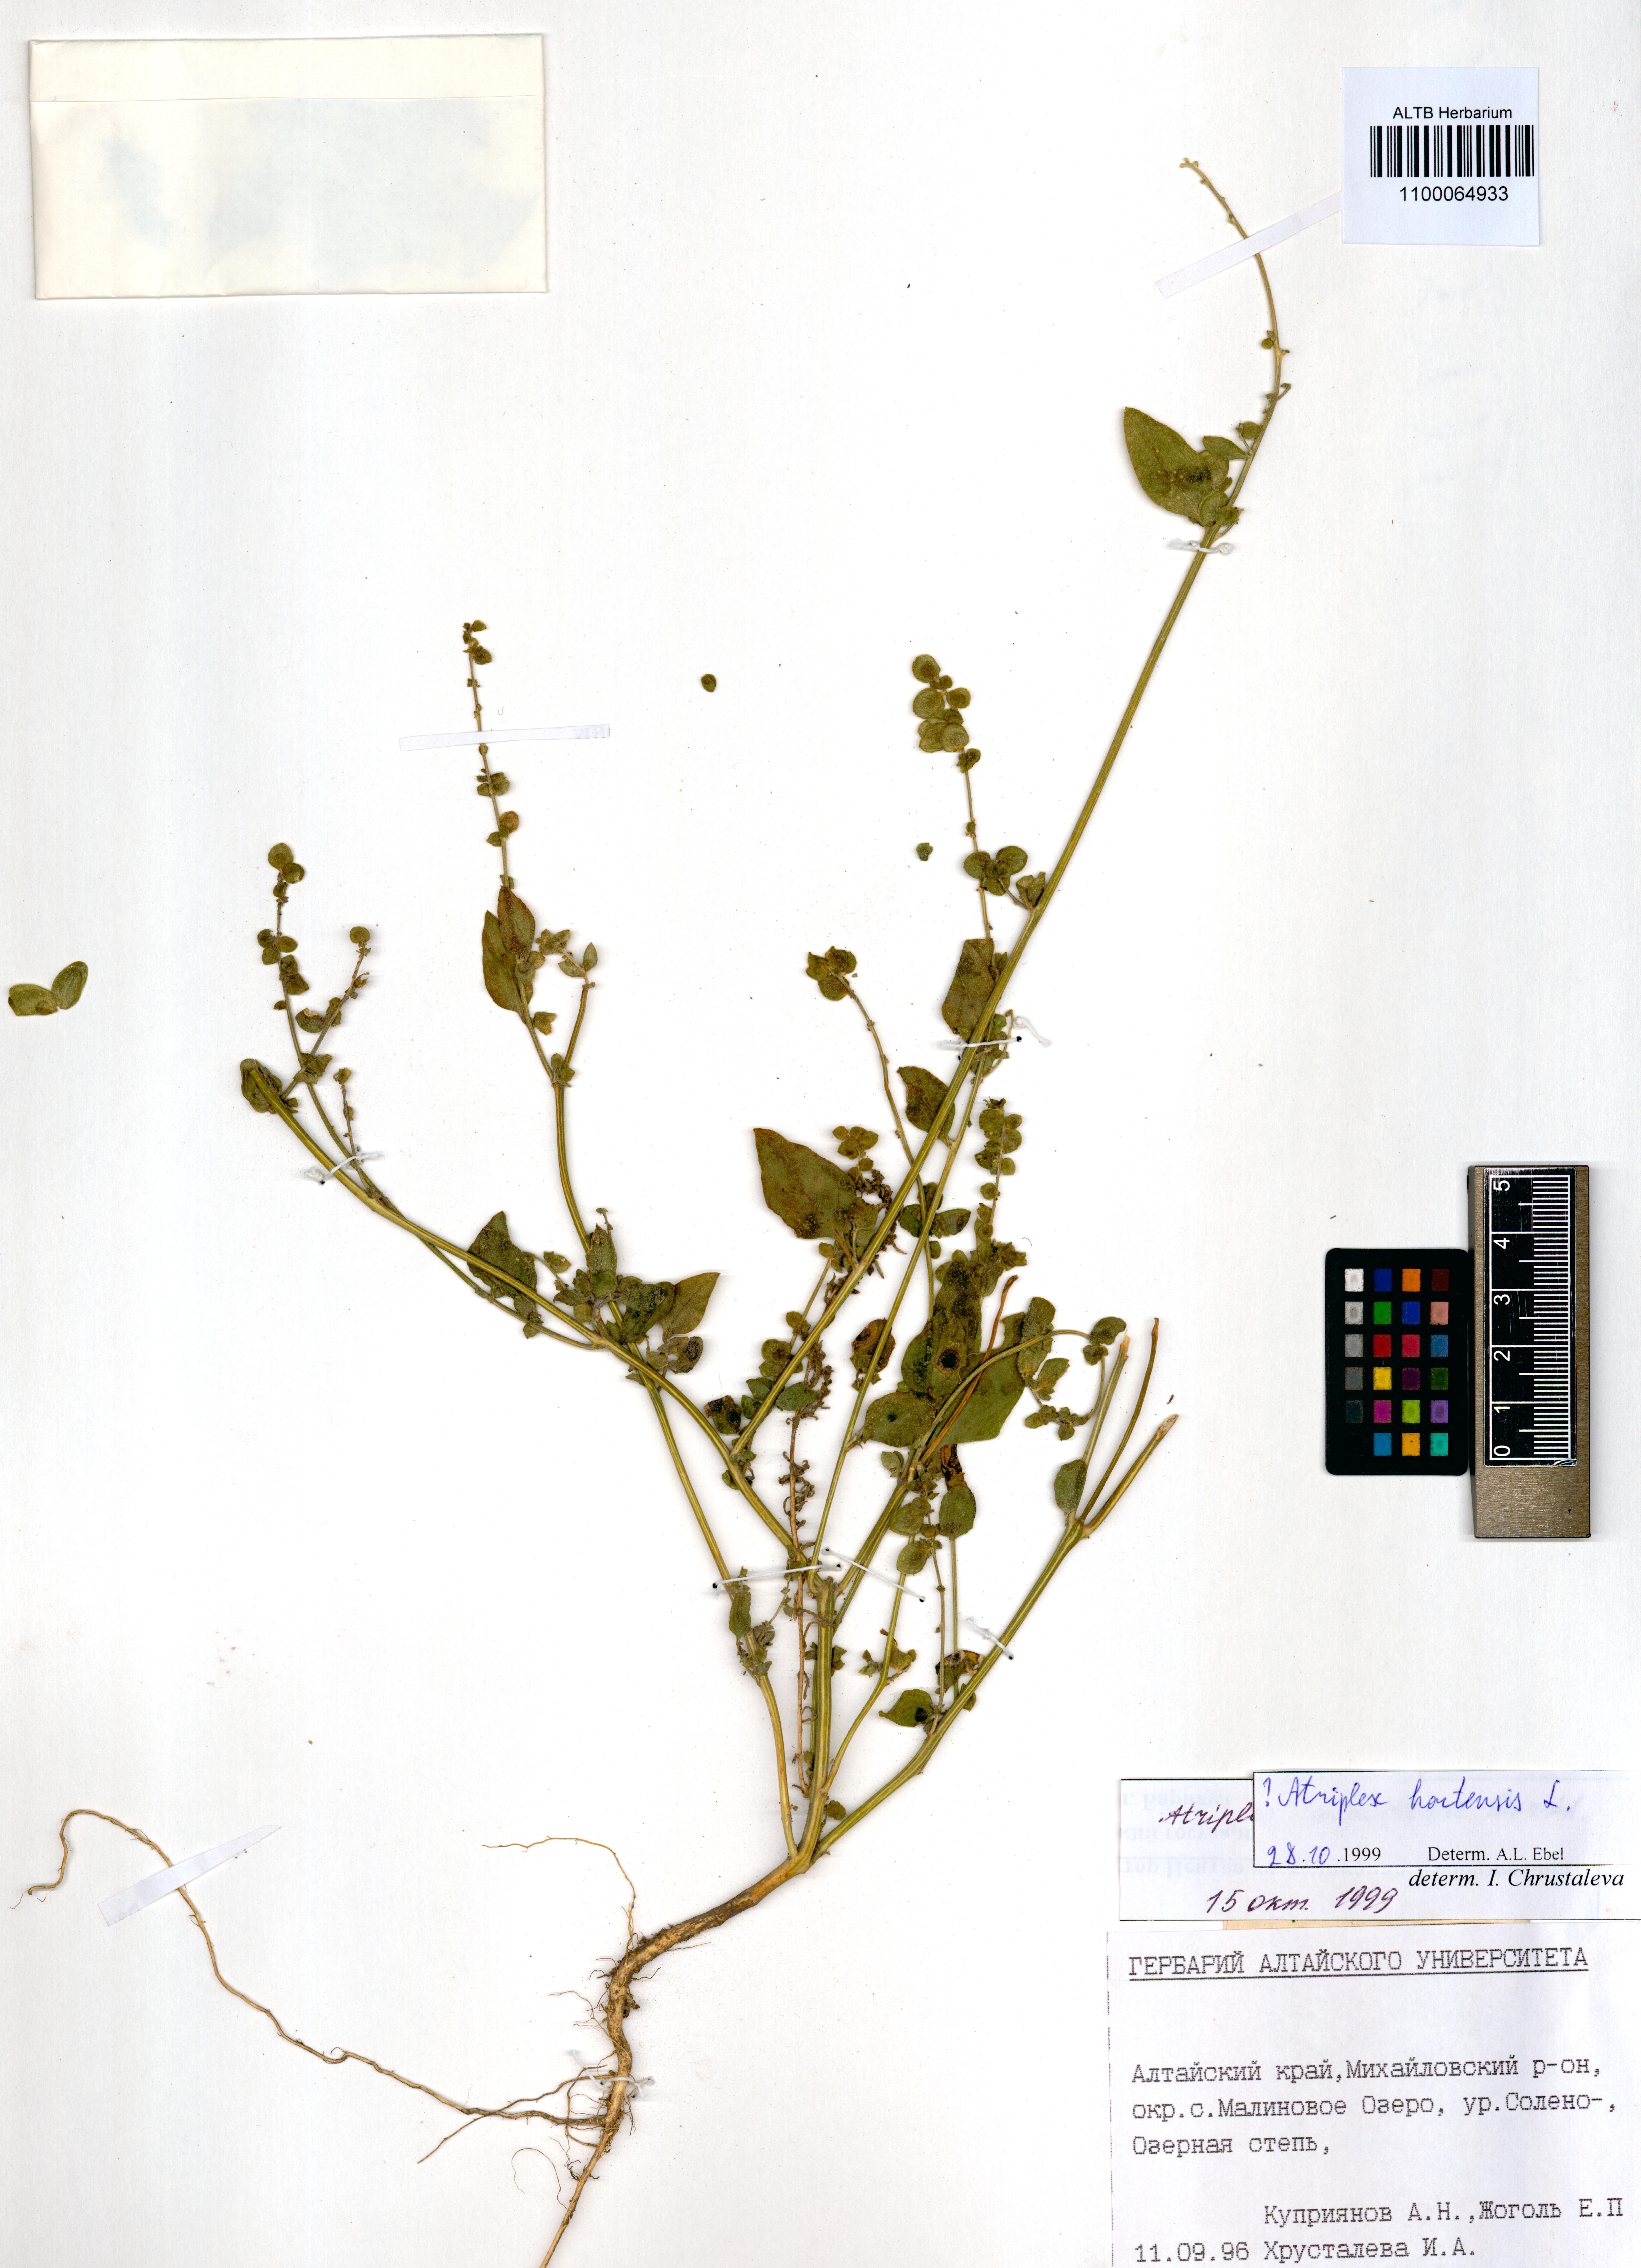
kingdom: Plantae
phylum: Tracheophyta
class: Magnoliopsida
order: Caryophyllales
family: Amaranthaceae
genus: Atriplex
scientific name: Atriplex hortensis
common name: Garden orache
